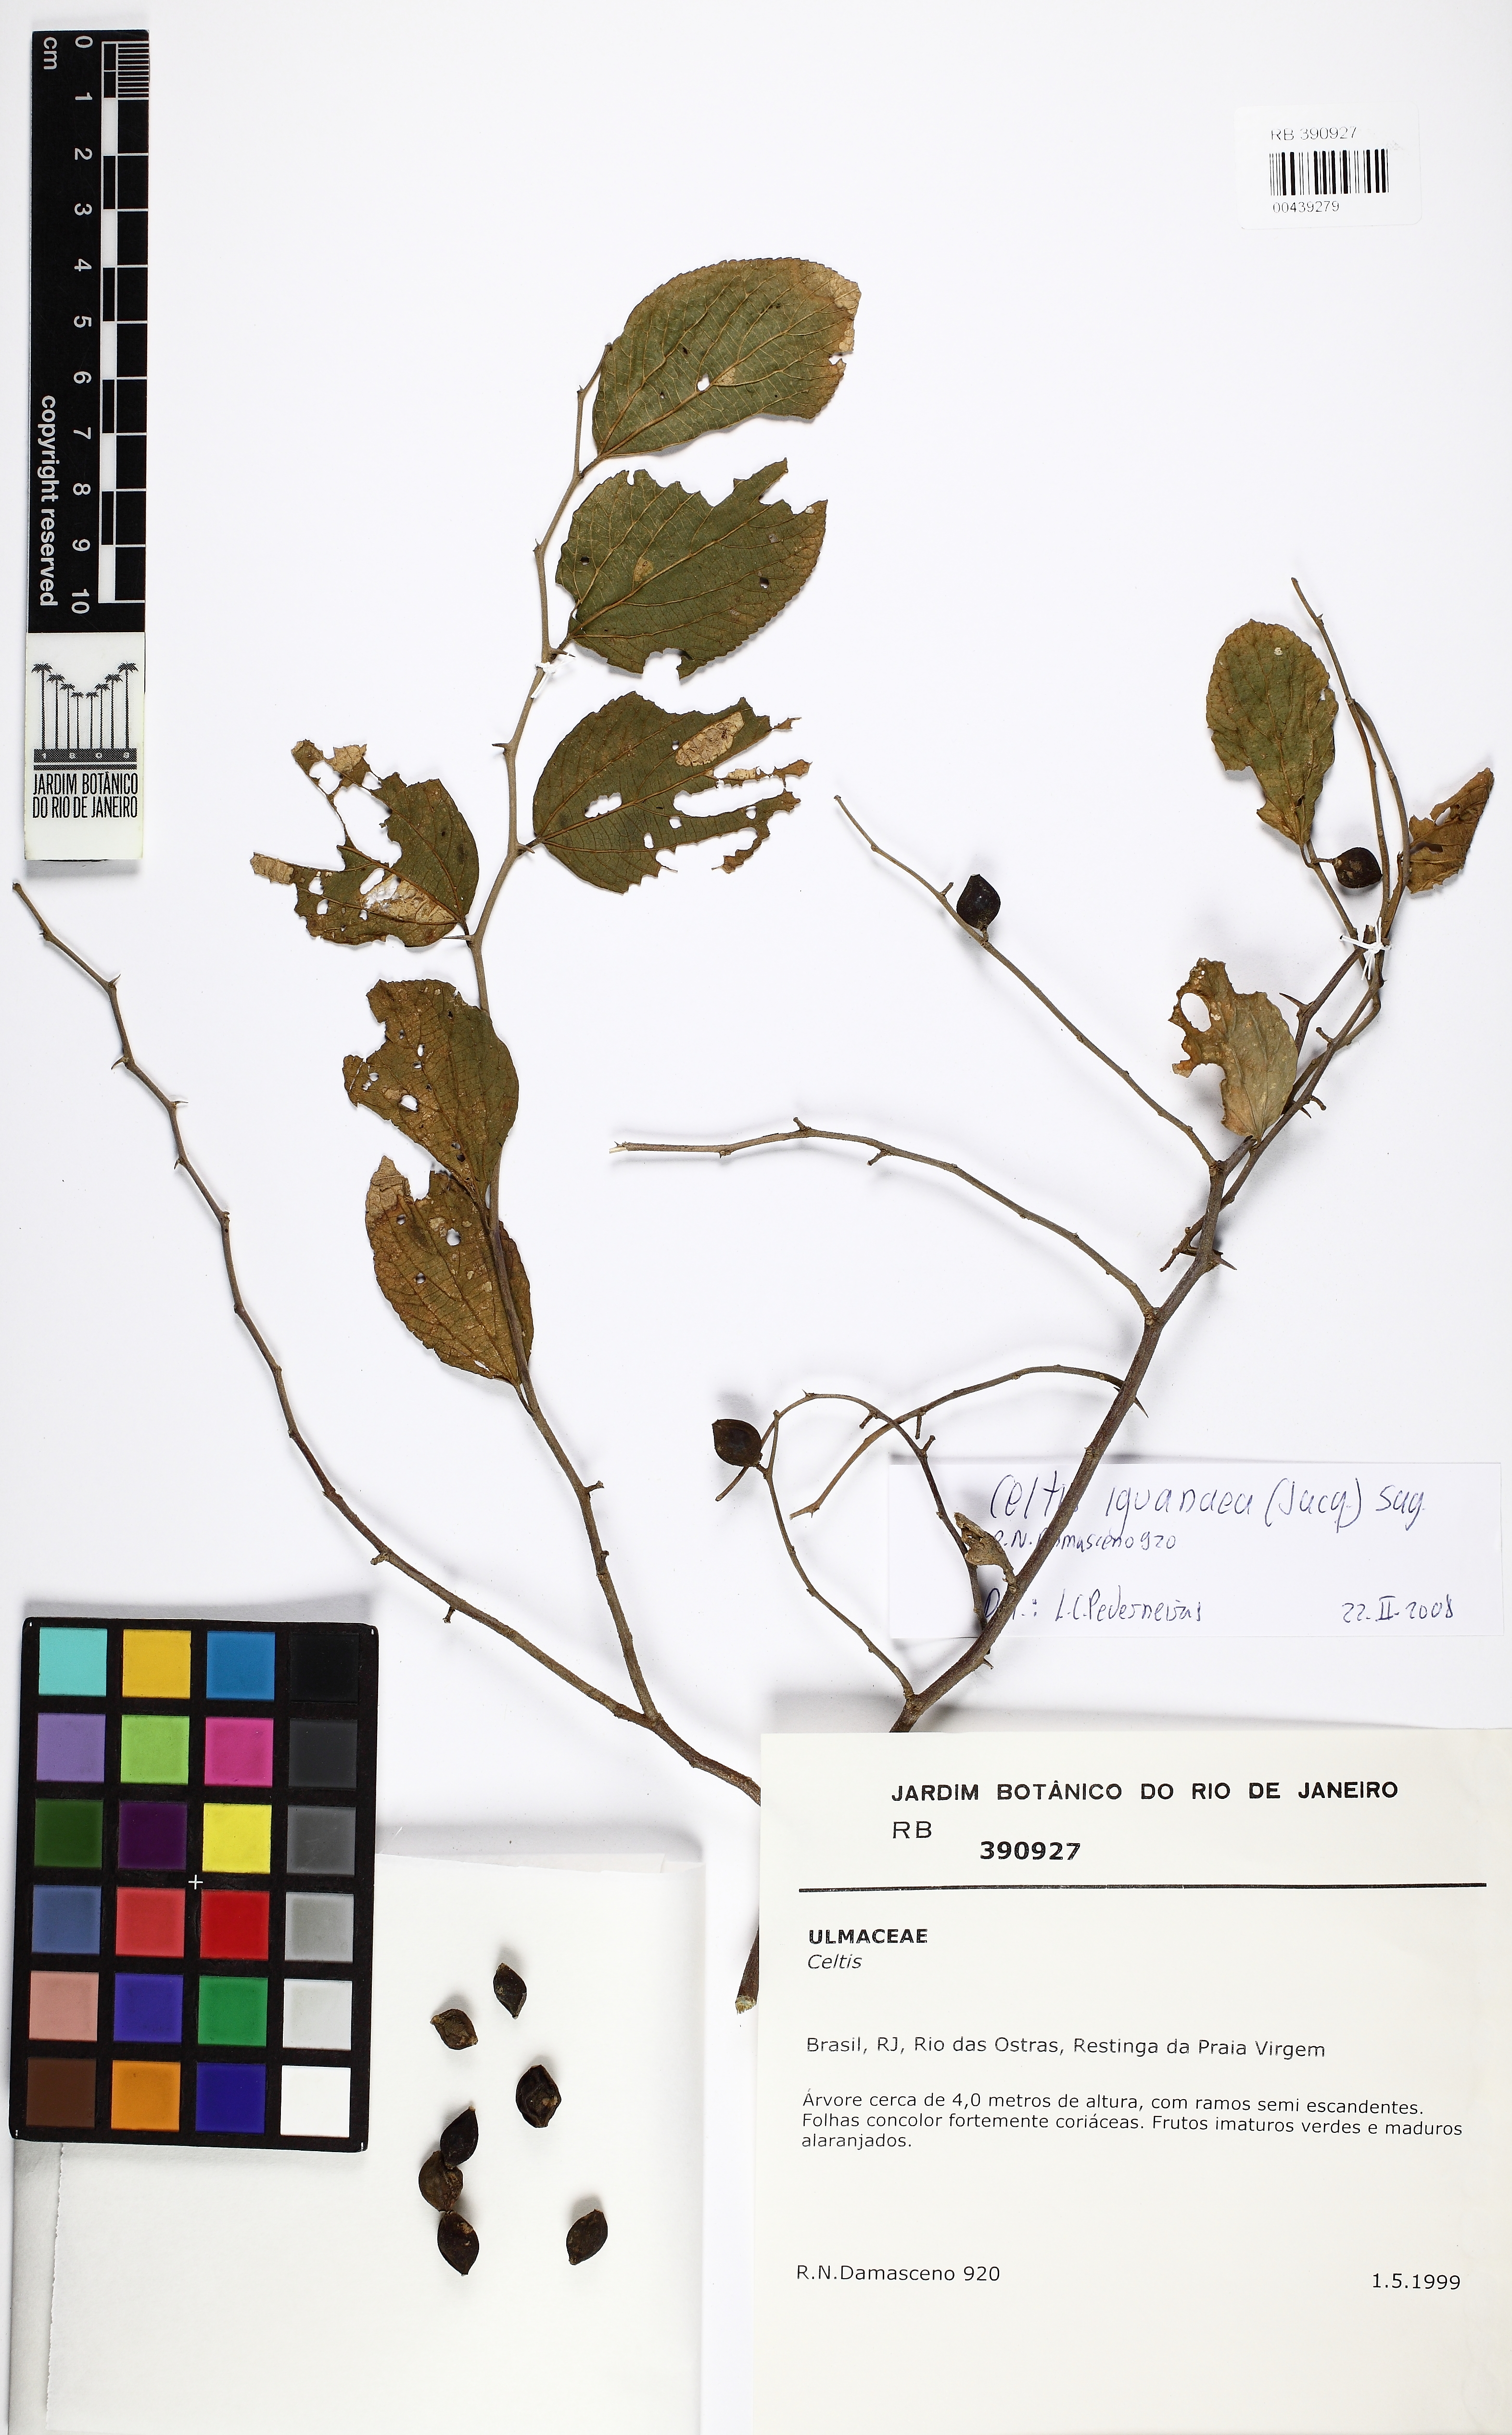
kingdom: Plantae
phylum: Tracheophyta
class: Magnoliopsida
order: Rosales
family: Cannabaceae
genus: Celtis
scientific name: Celtis iguanaea
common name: Iguana hackberry
